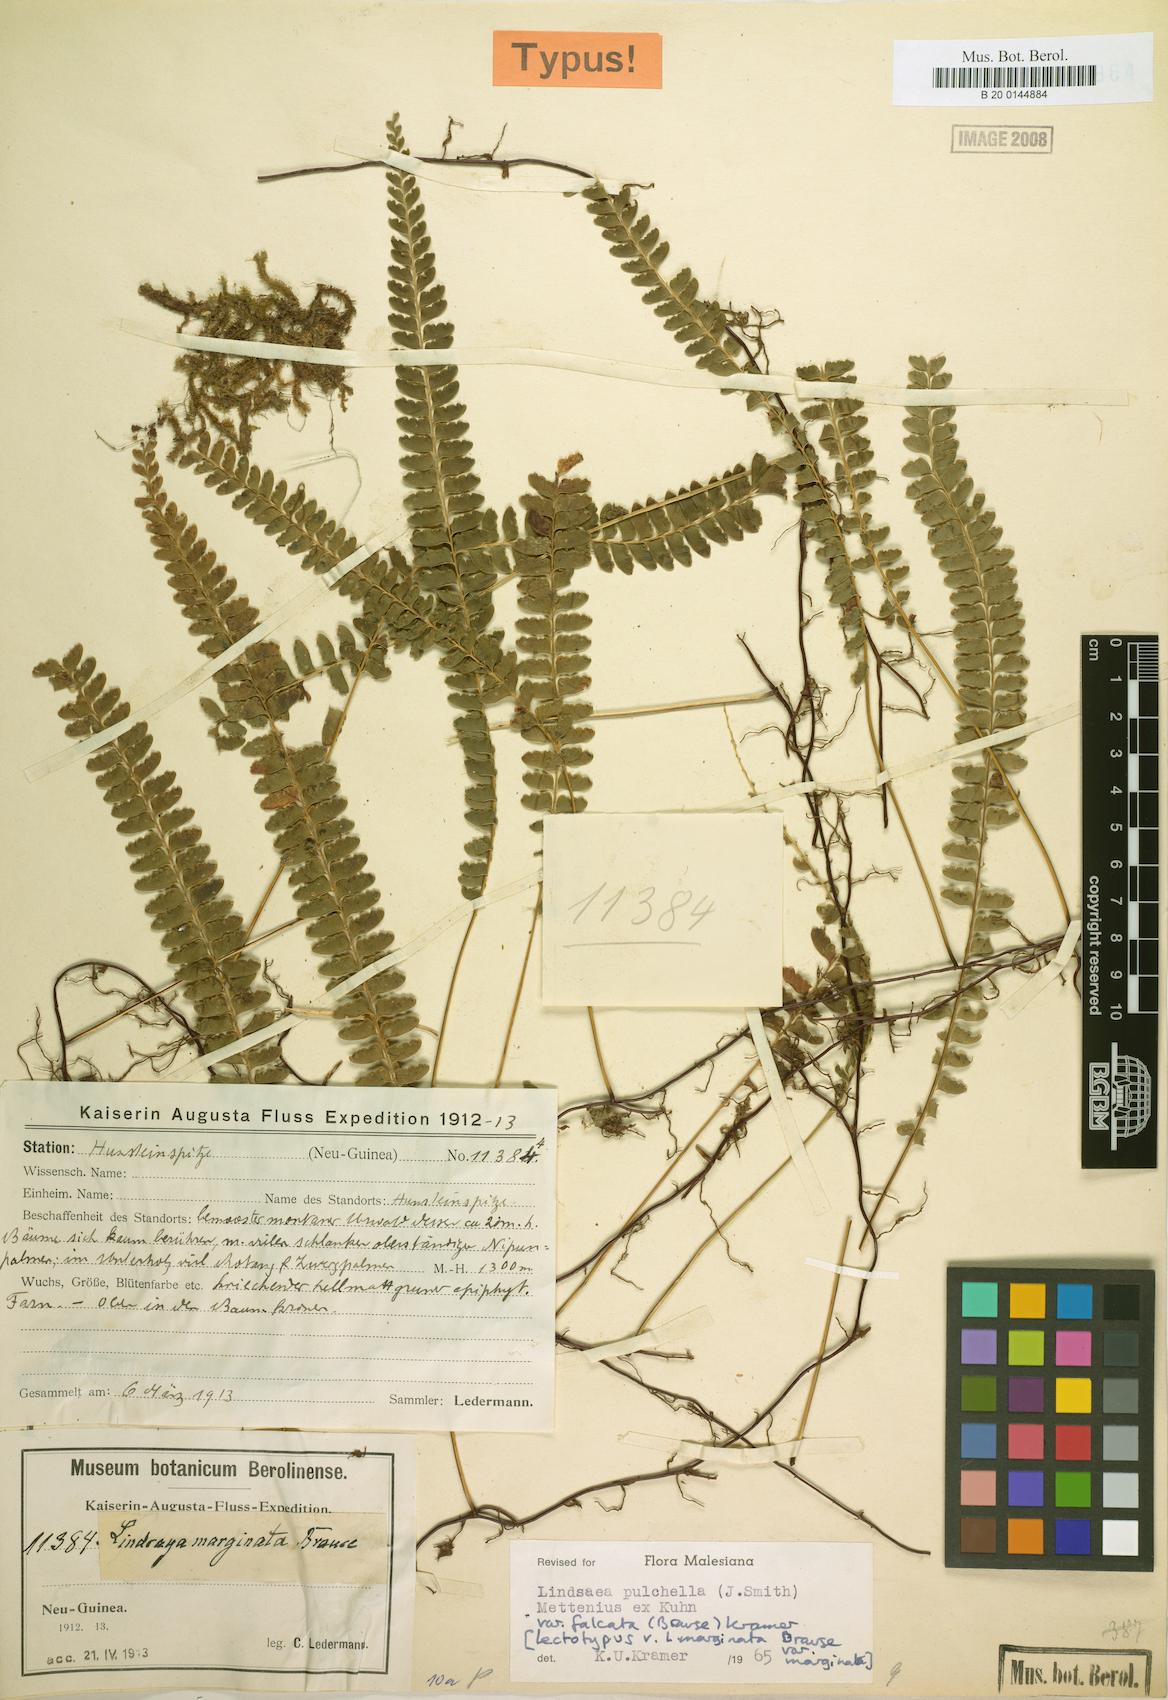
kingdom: Plantae
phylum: Tracheophyta
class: Polypodiopsida
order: Polypodiales
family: Lindsaeaceae
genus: Lindsaea
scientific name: Lindsaea pulchella
